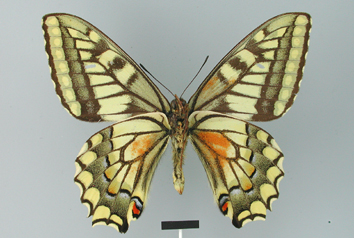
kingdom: Animalia
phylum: Arthropoda
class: Insecta
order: Lepidoptera
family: Papilionidae
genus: Papilio
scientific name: Papilio machaon
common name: Swallowtail
